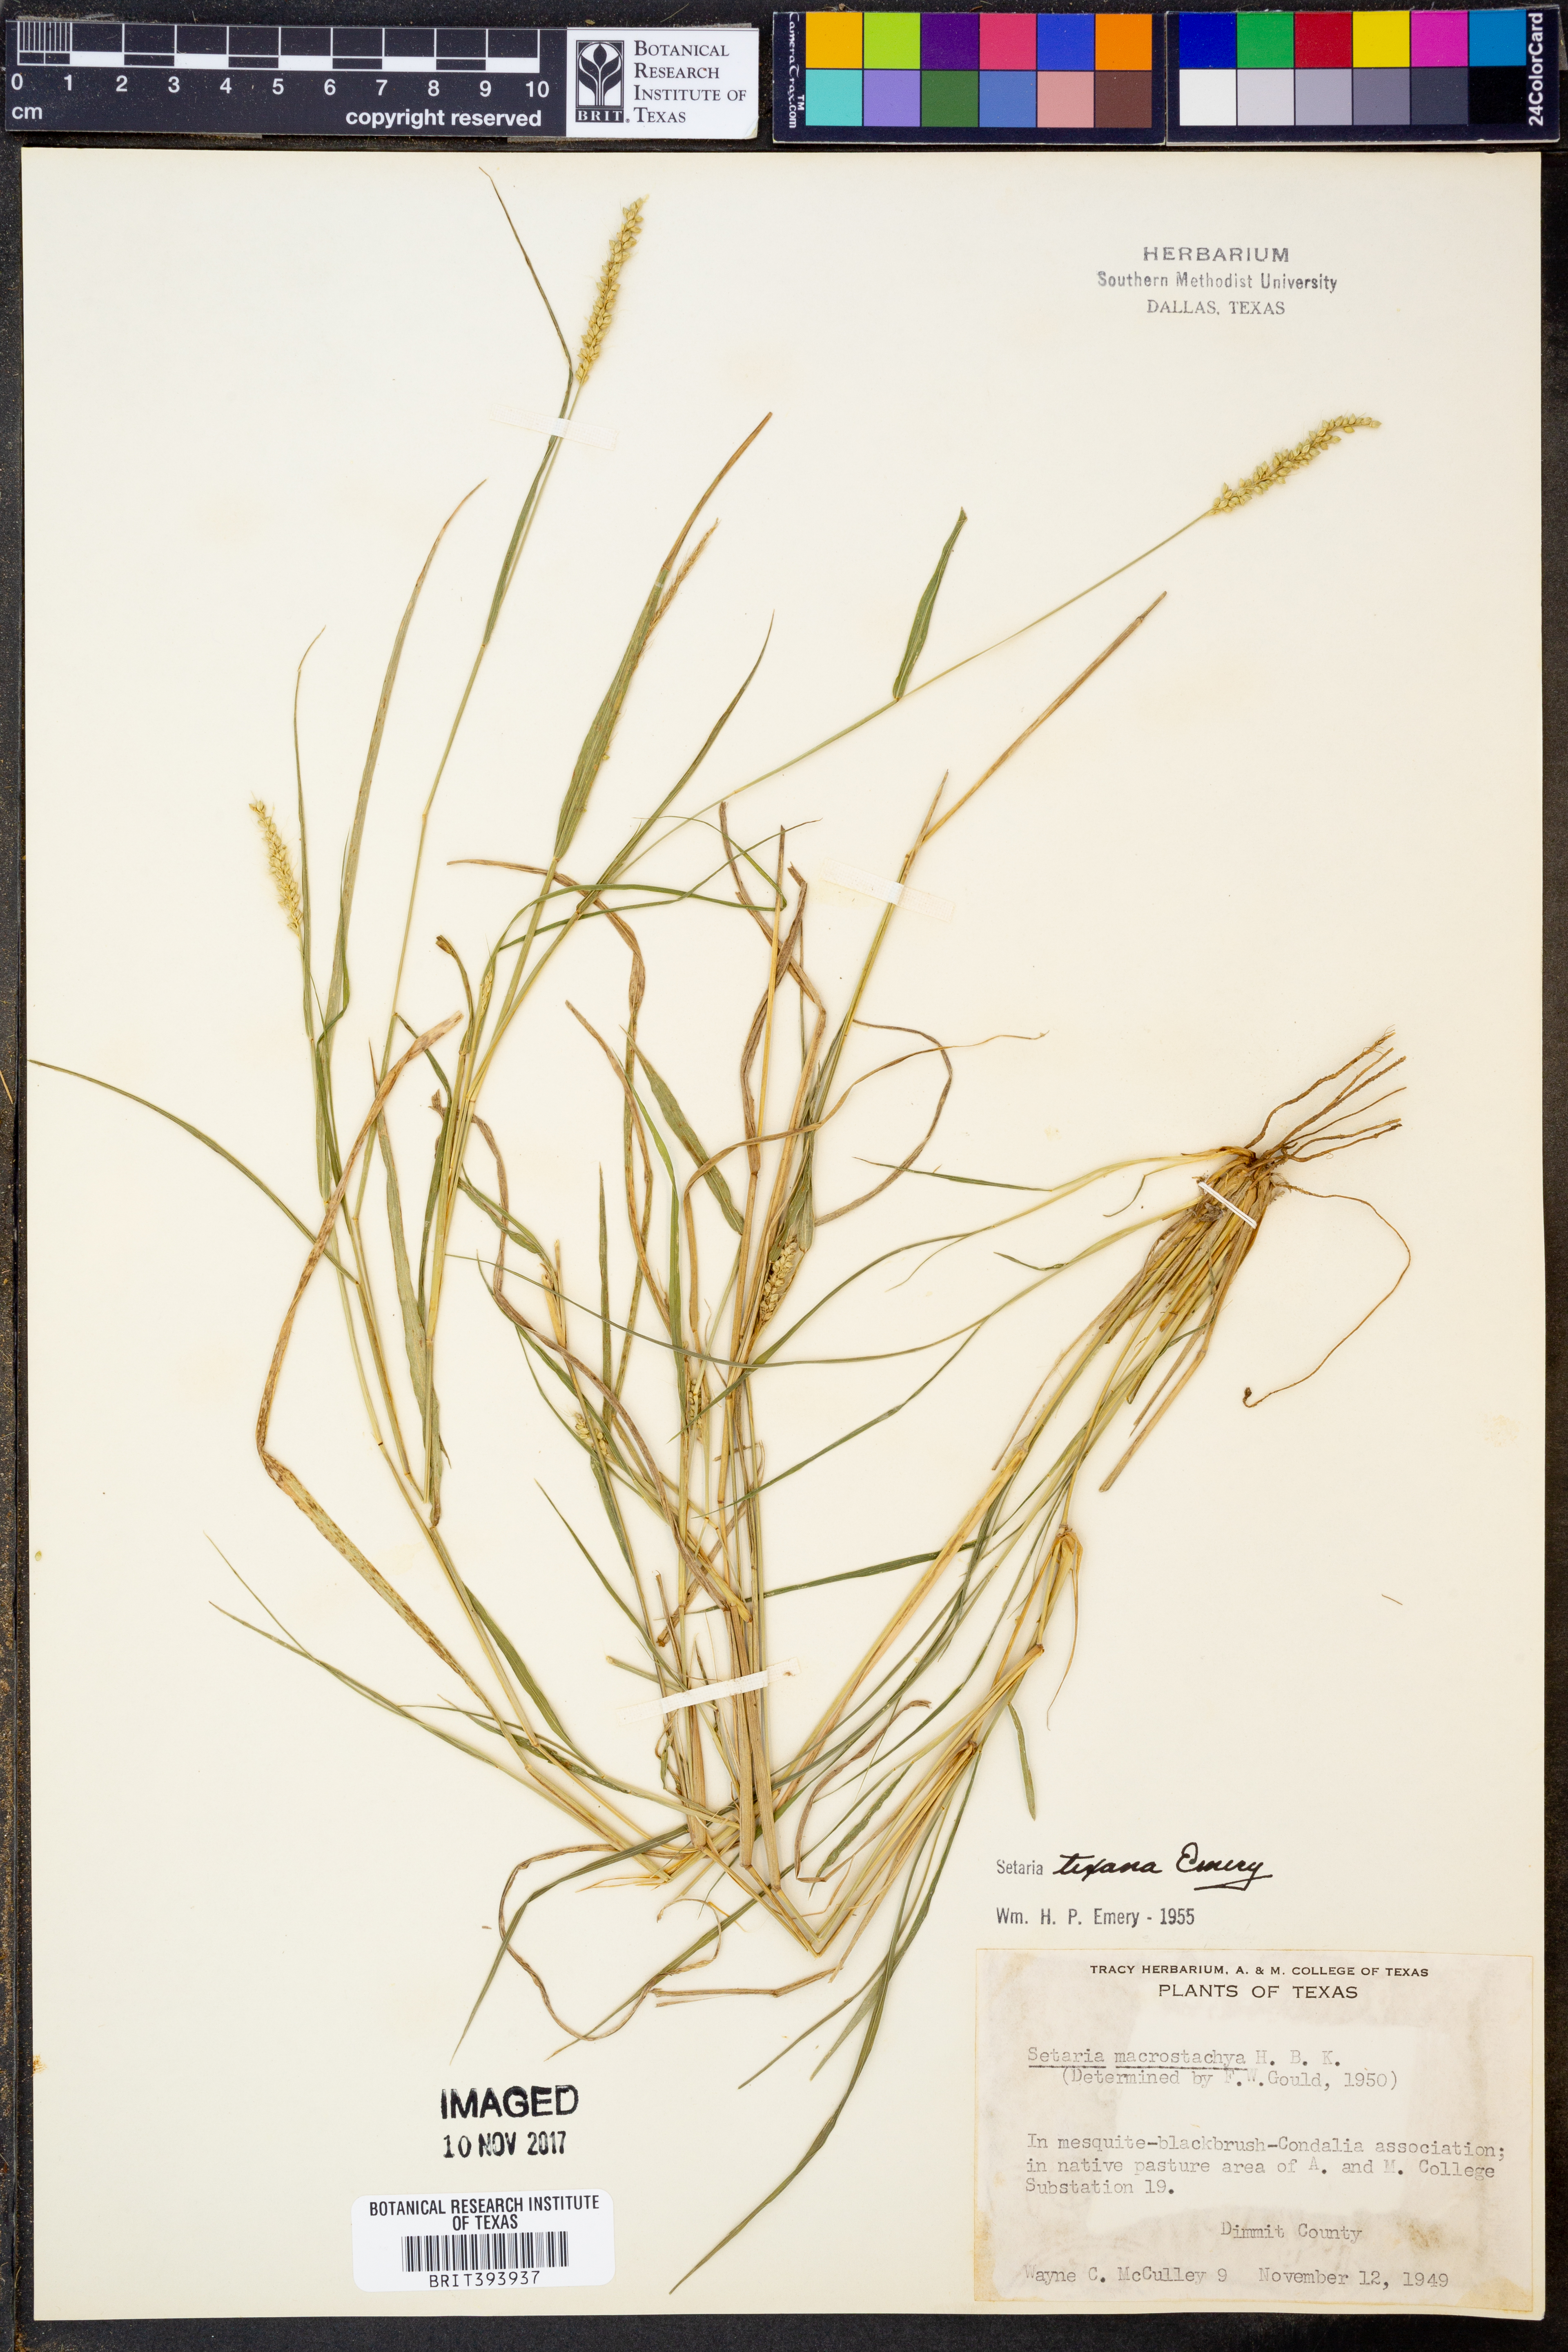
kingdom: Plantae
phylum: Tracheophyta
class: Liliopsida
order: Poales
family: Poaceae
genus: Setaria
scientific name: Setaria macrostachya
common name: Plains bristle grass
